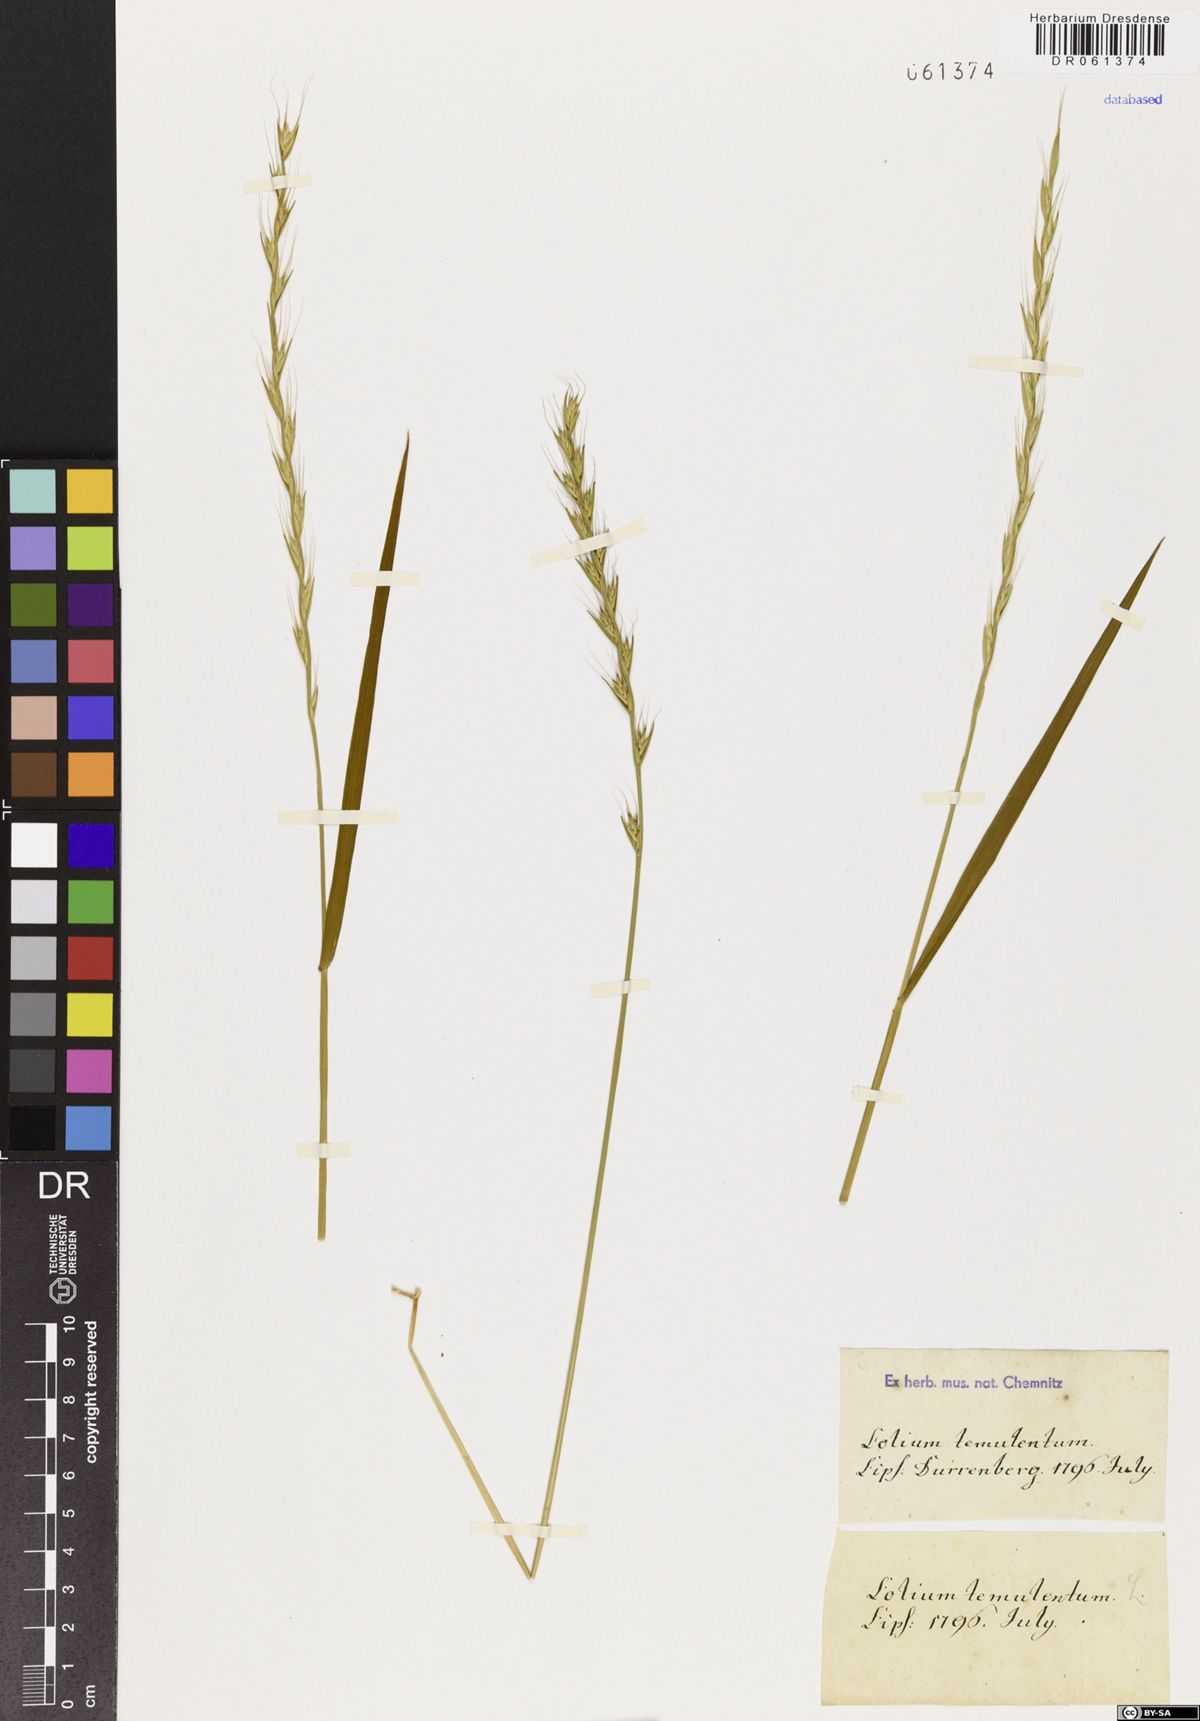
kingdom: Plantae
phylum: Tracheophyta
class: Liliopsida
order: Poales
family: Poaceae
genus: Lolium
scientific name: Lolium temulentum
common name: Darnel
